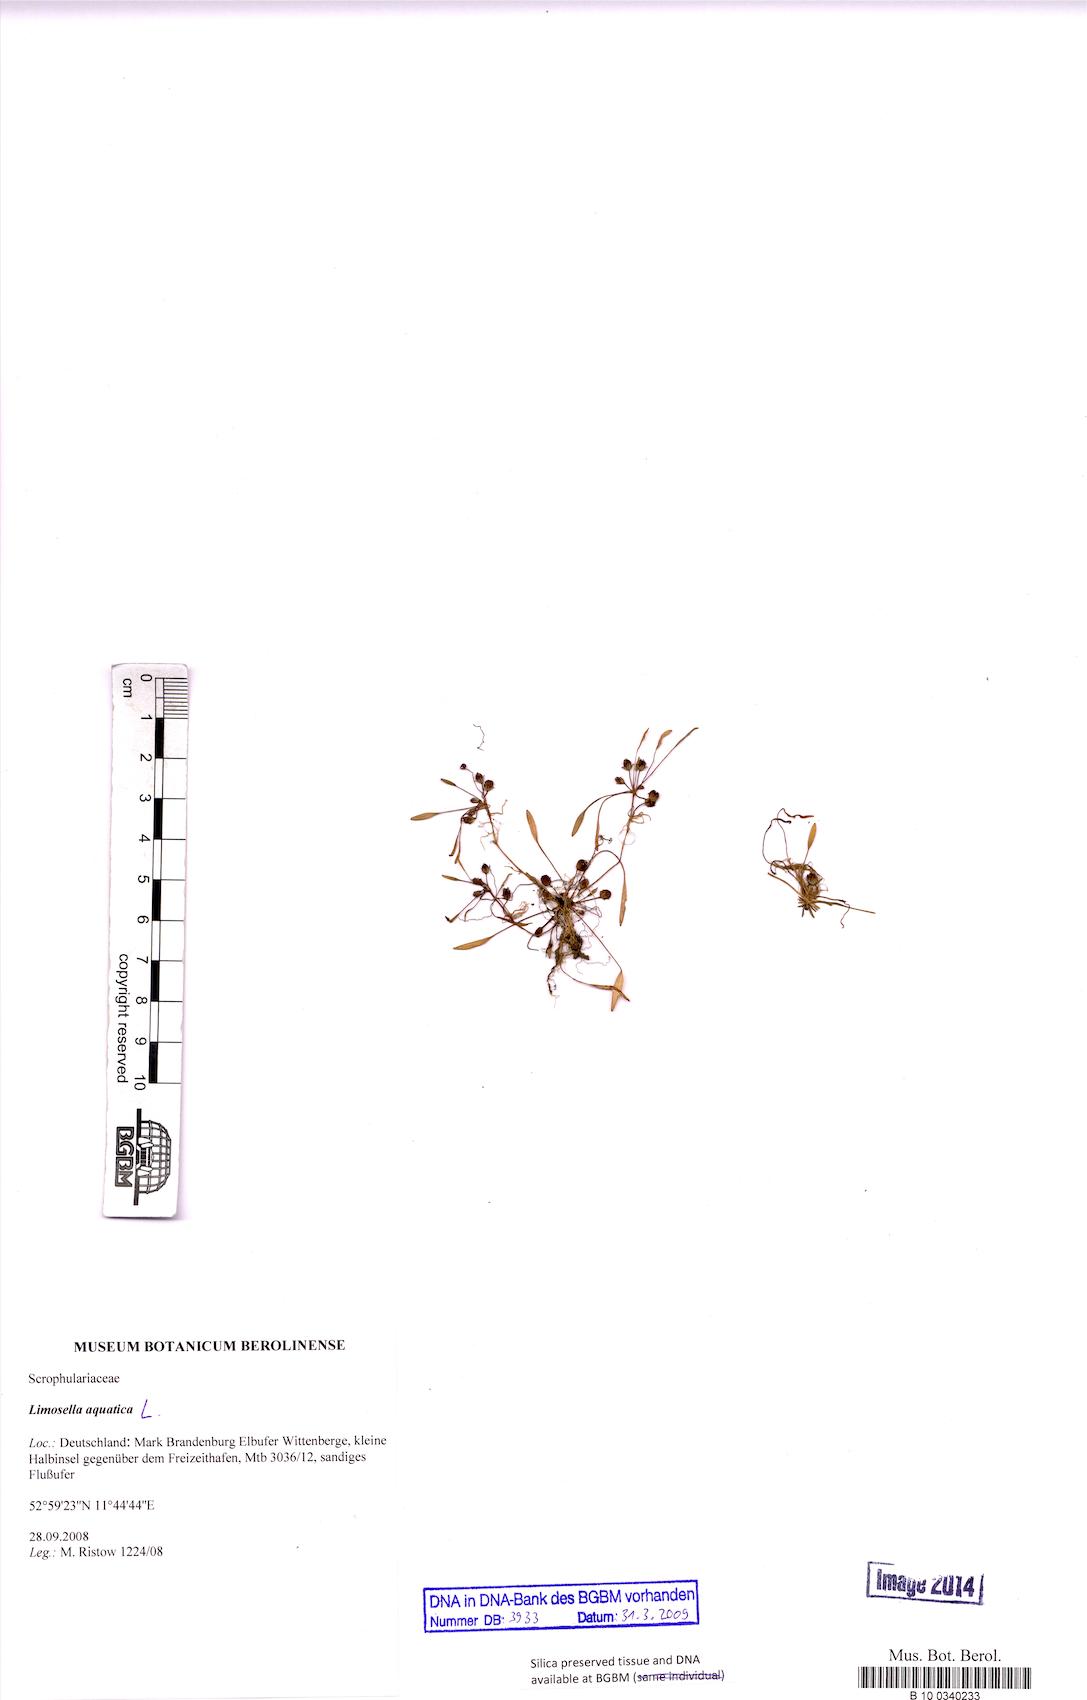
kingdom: Plantae
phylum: Tracheophyta
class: Magnoliopsida
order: Lamiales
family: Scrophulariaceae
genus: Limosella
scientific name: Limosella aquatica
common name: Mudwort
